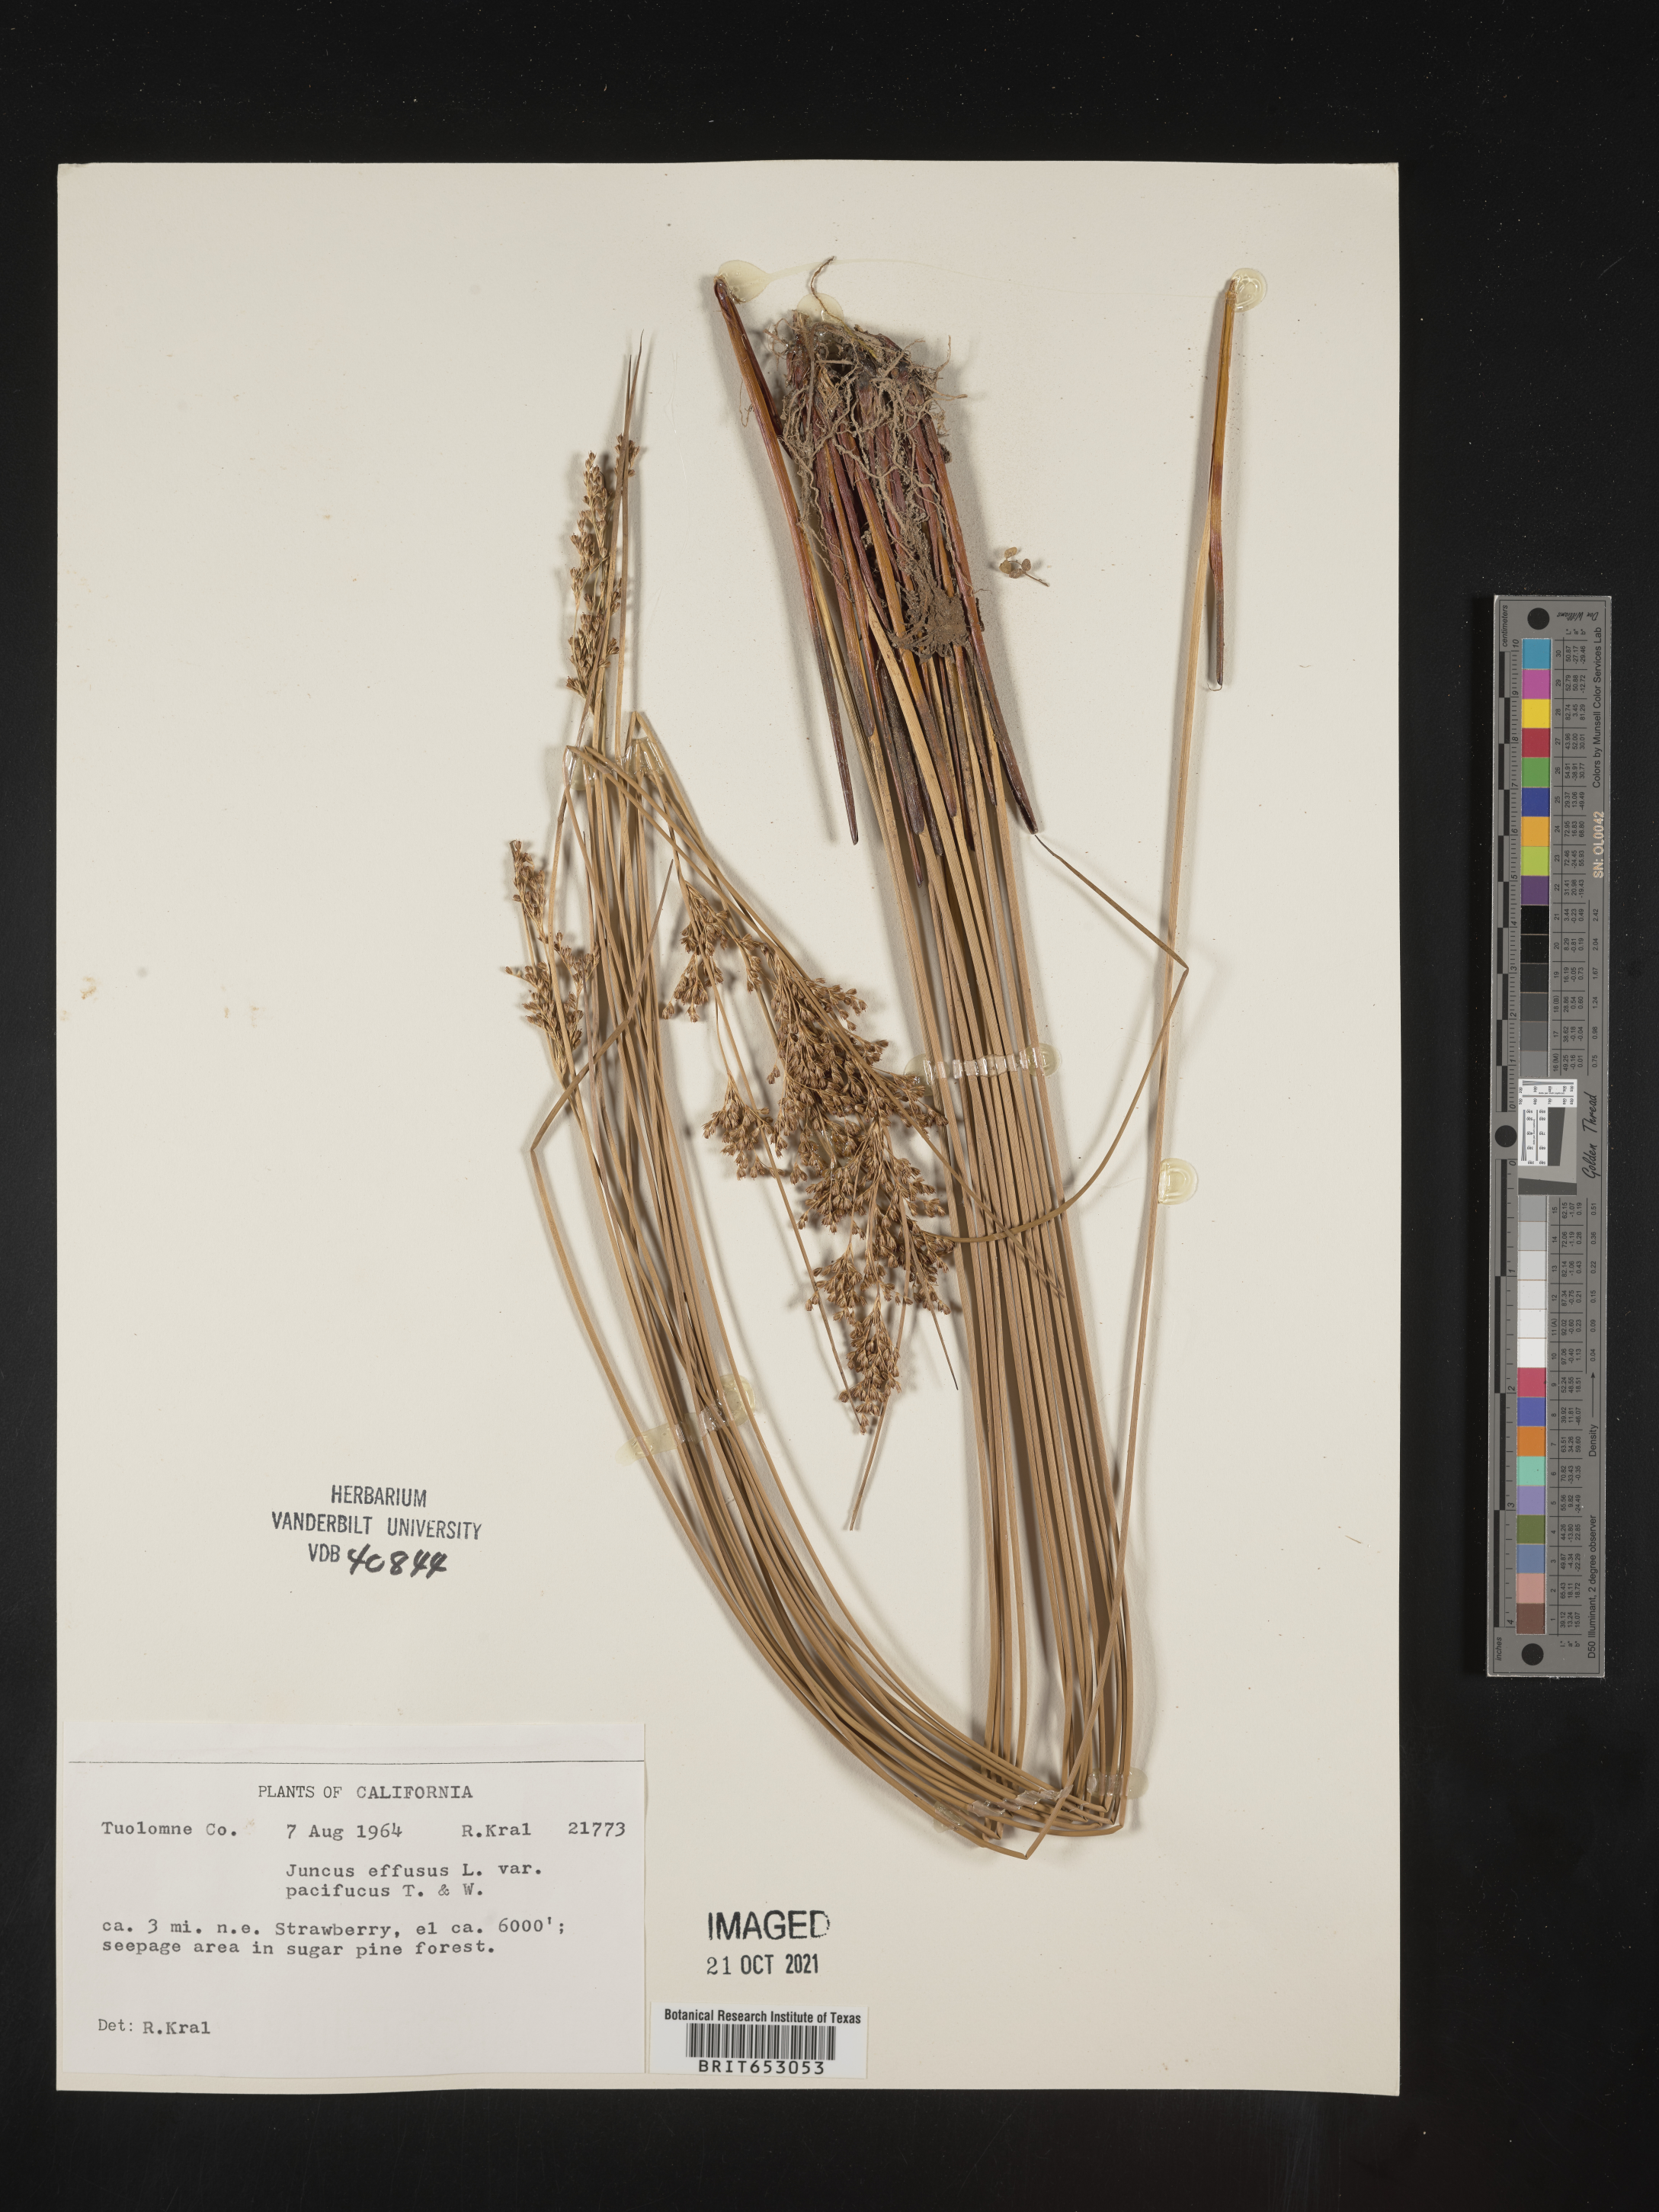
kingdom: Plantae
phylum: Tracheophyta
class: Liliopsida
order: Poales
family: Juncaceae
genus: Juncus
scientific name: Juncus effusus
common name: Soft rush
